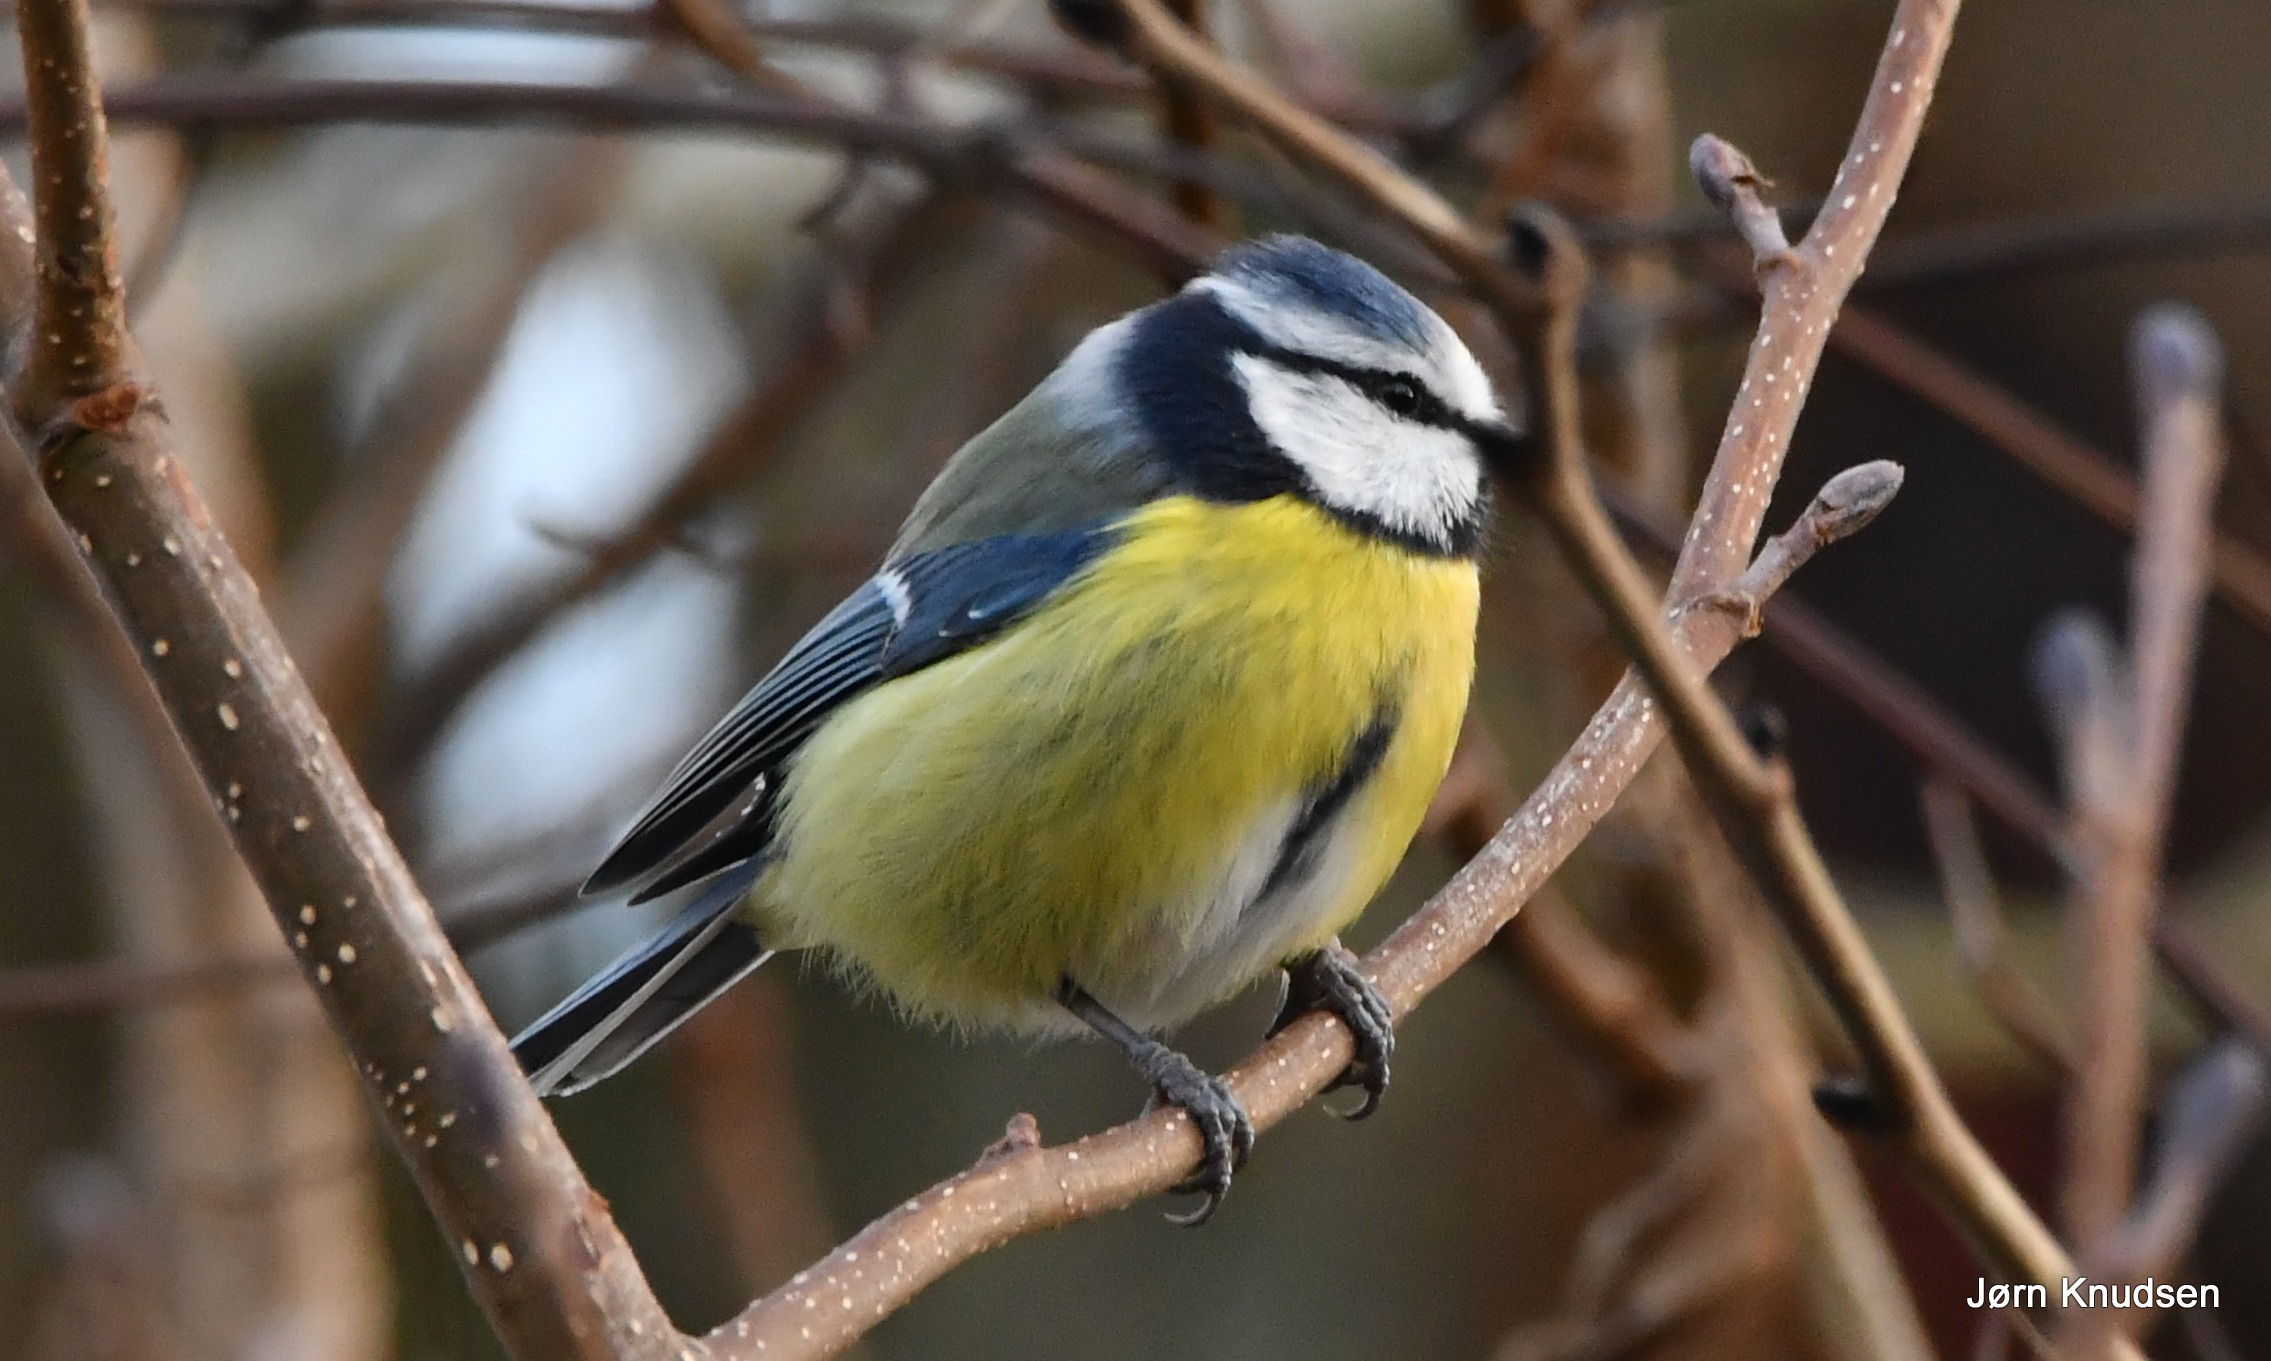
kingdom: Animalia
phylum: Chordata
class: Aves
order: Passeriformes
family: Paridae
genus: Cyanistes
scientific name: Cyanistes caeruleus
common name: Blåmejse
